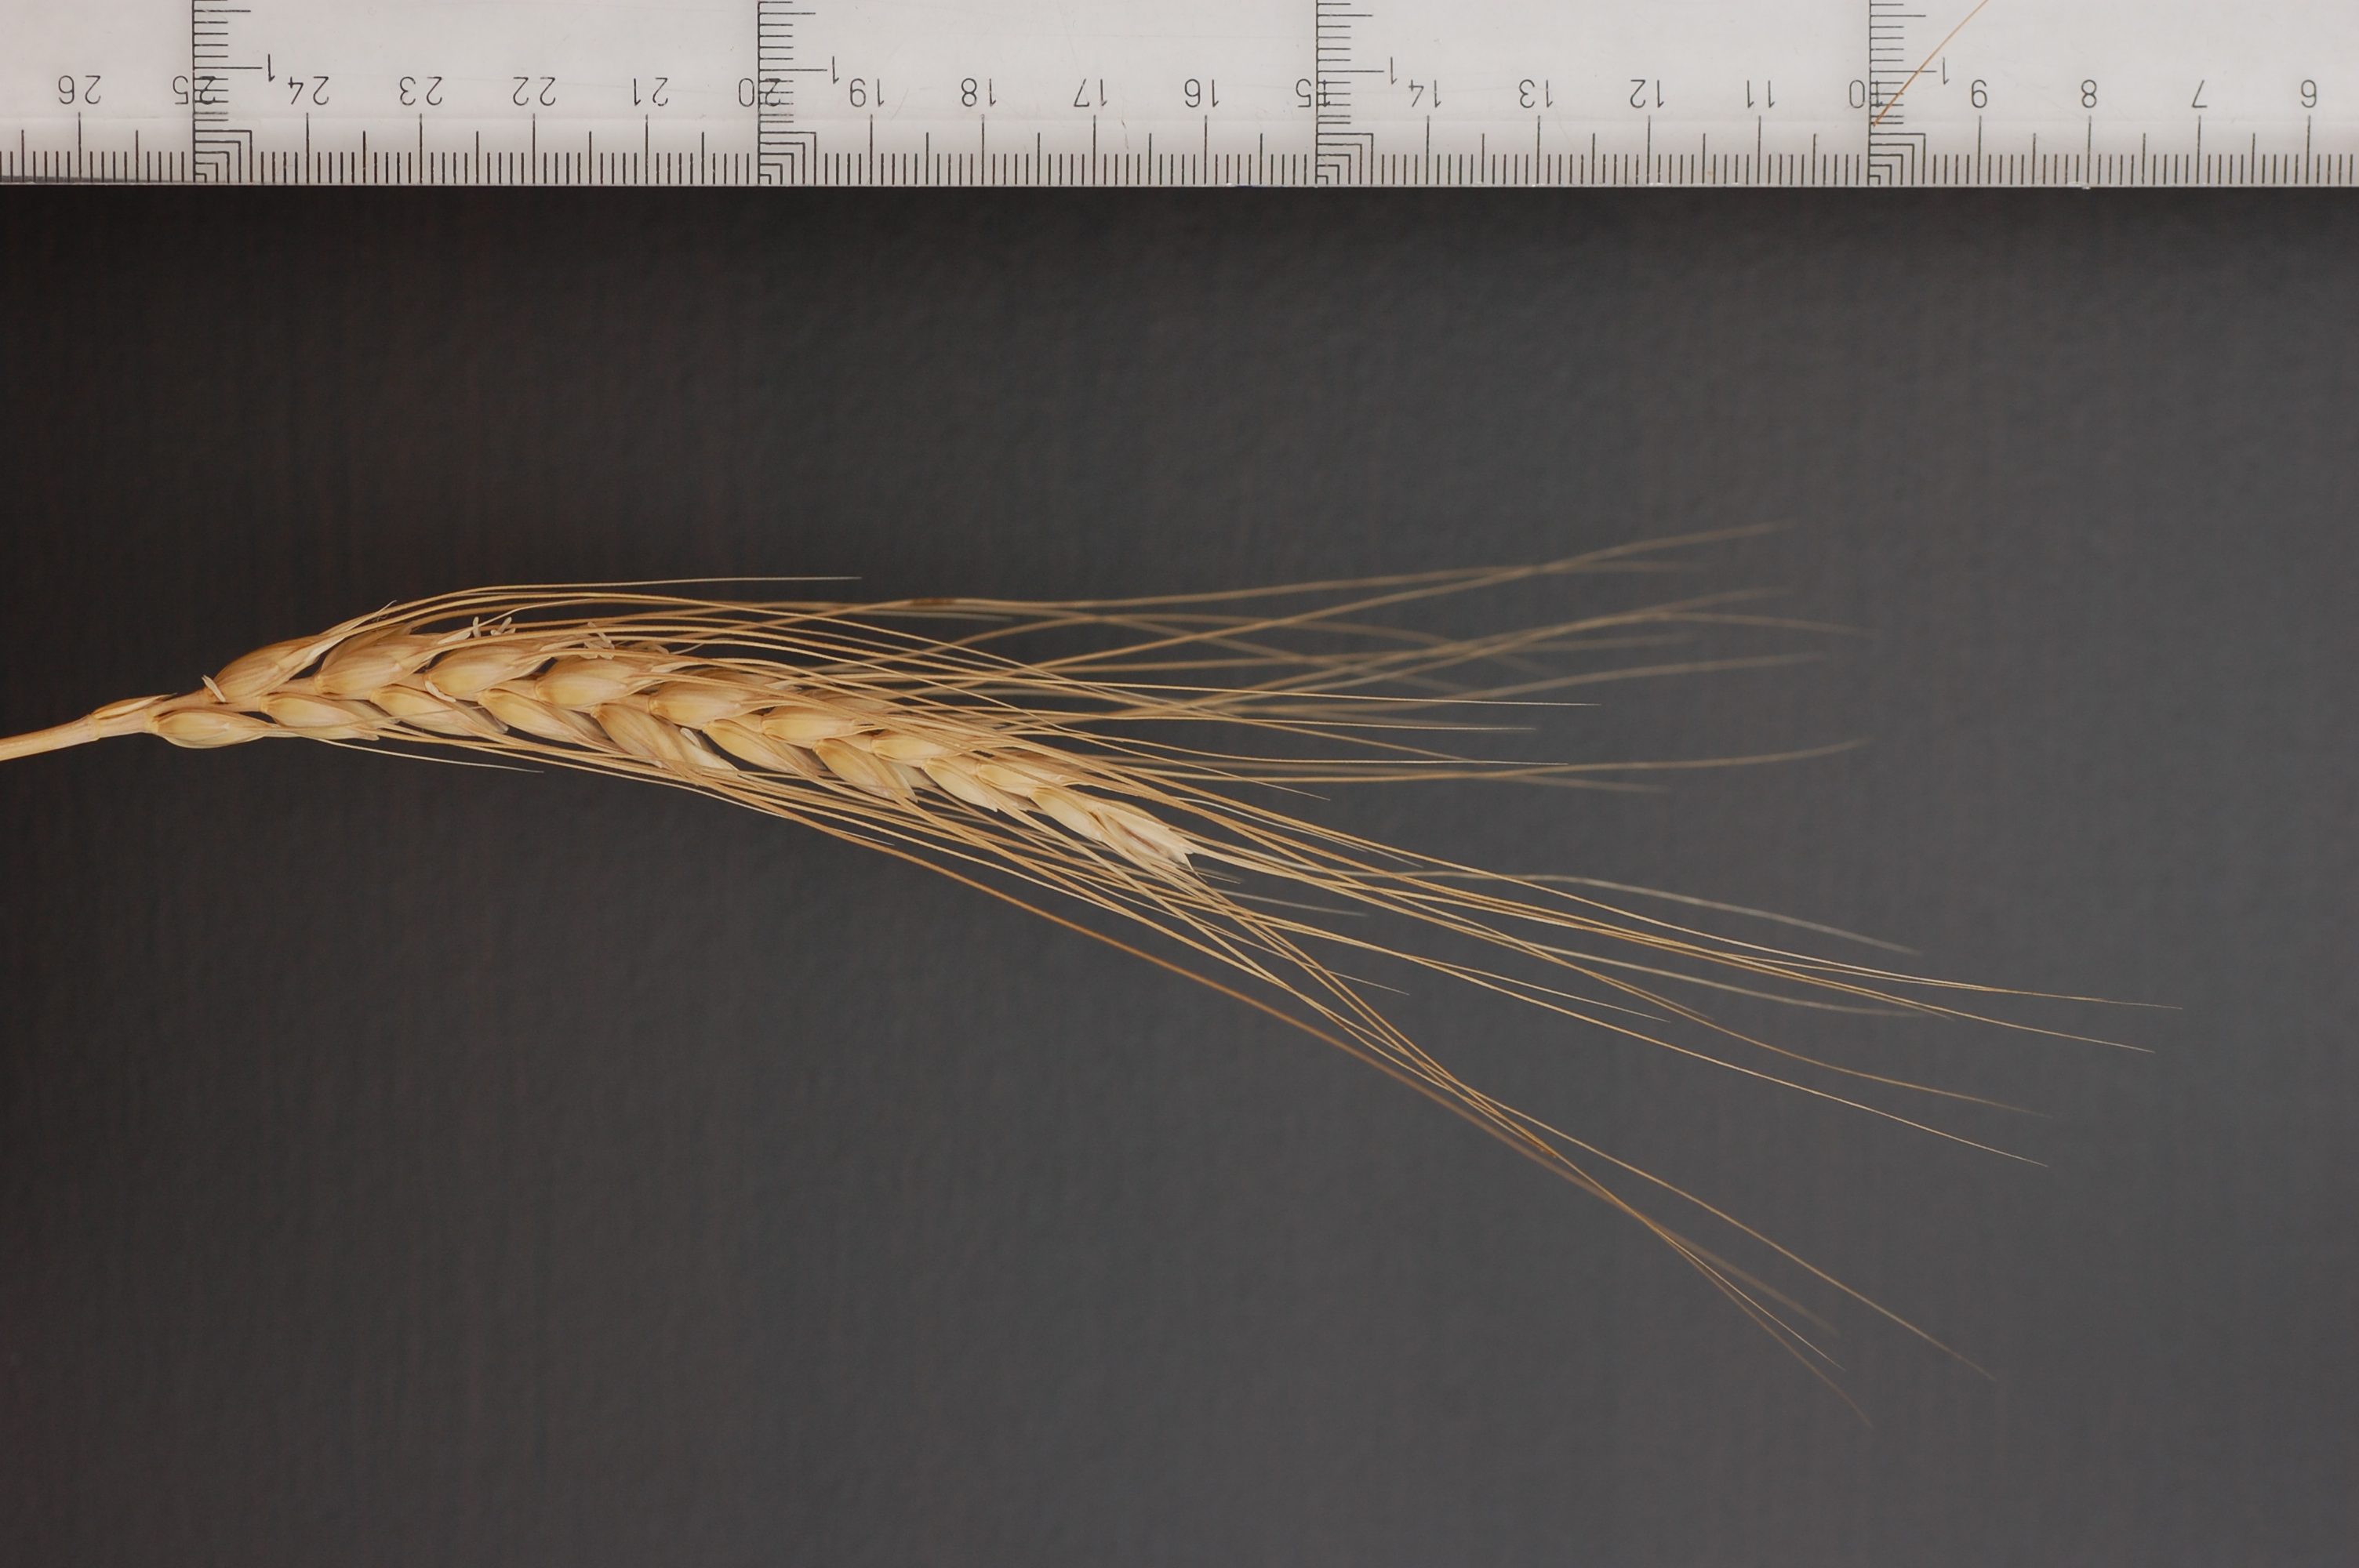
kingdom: Plantae
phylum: Tracheophyta
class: Liliopsida
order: Poales
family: Poaceae
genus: Triticum
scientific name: Triticum aestivum
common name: Common wheat
